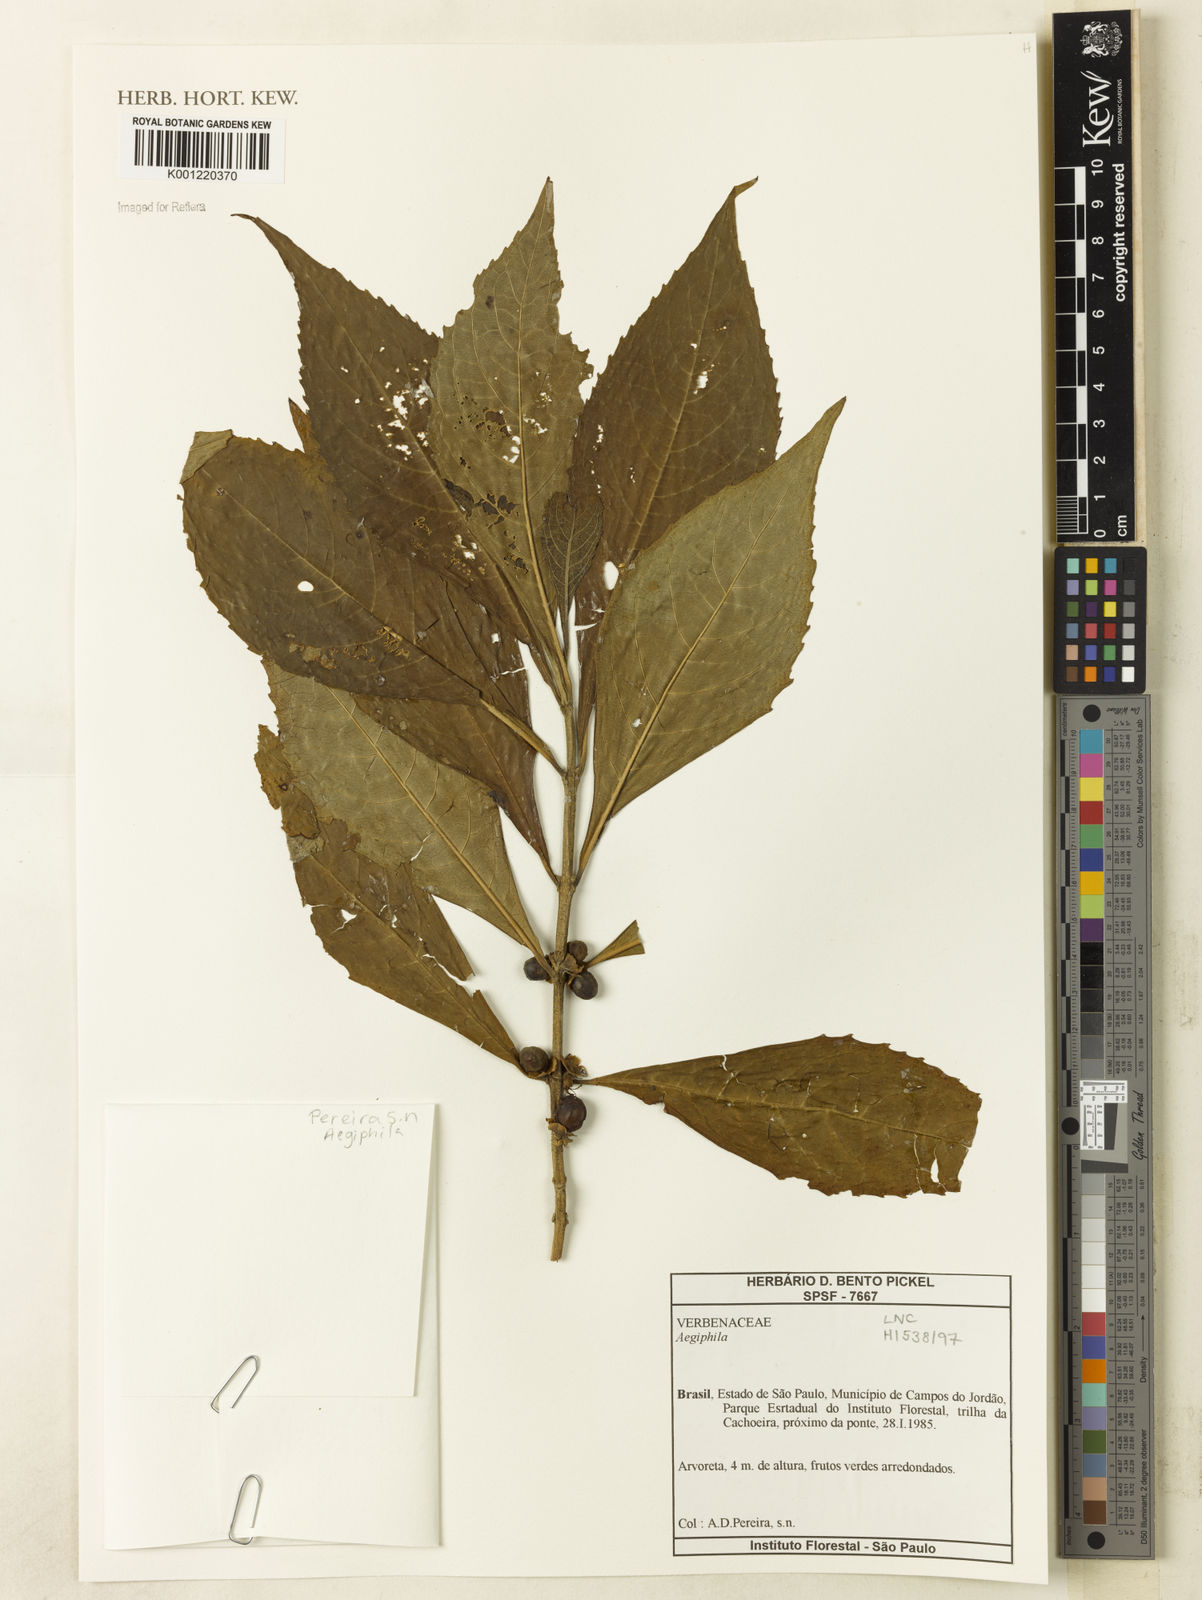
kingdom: Plantae
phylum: Tracheophyta
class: Magnoliopsida
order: Lamiales
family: Lamiaceae
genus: Aegiphila
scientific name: Aegiphila
